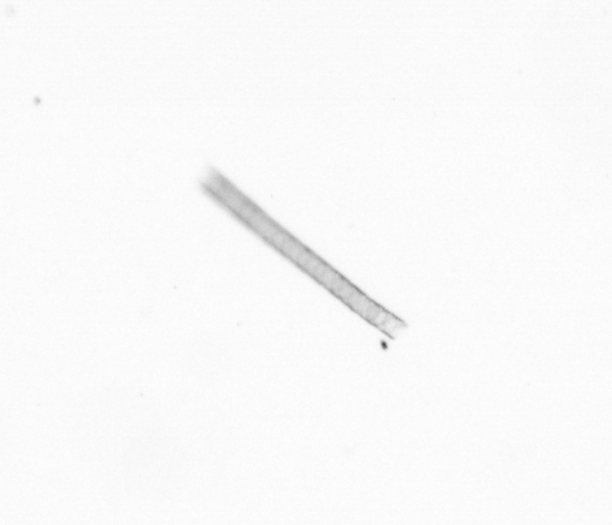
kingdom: Chromista
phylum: Ochrophyta
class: Bacillariophyceae
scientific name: Bacillariophyceae
